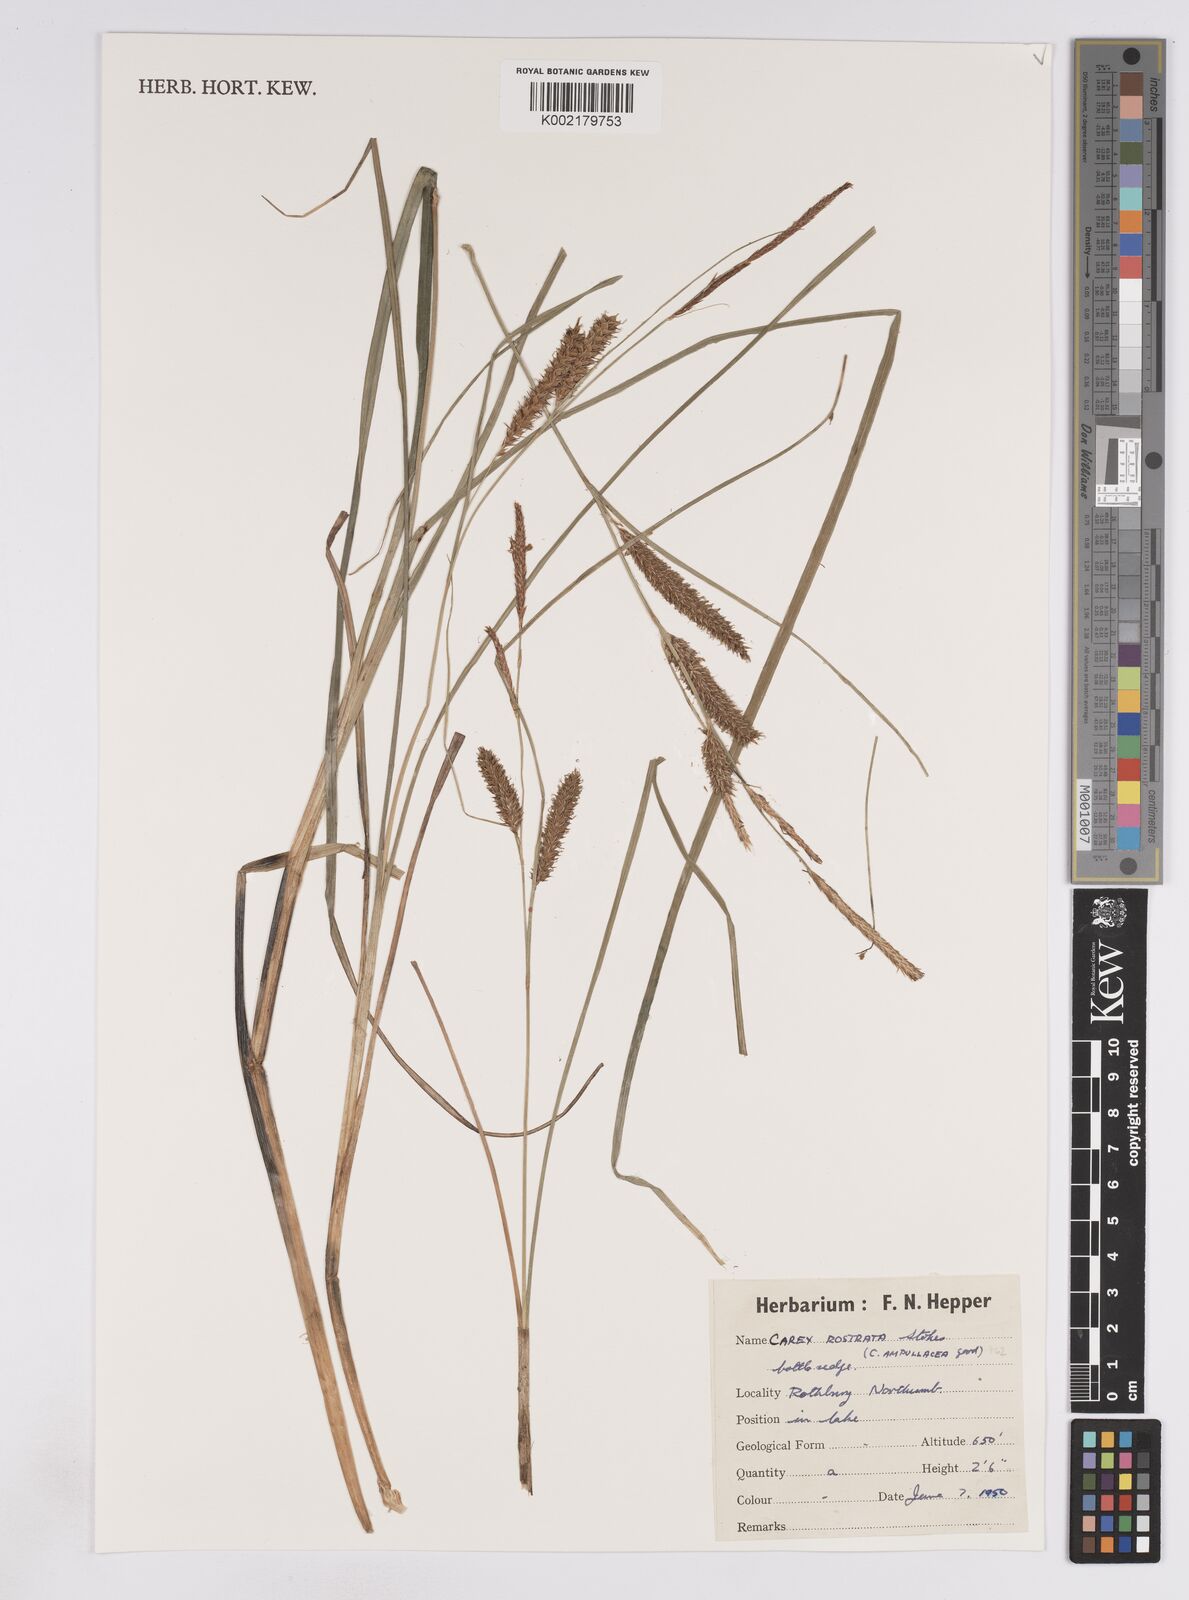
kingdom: Plantae
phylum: Tracheophyta
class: Liliopsida
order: Poales
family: Cyperaceae
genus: Carex
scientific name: Carex rostrata
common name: Bottle sedge
